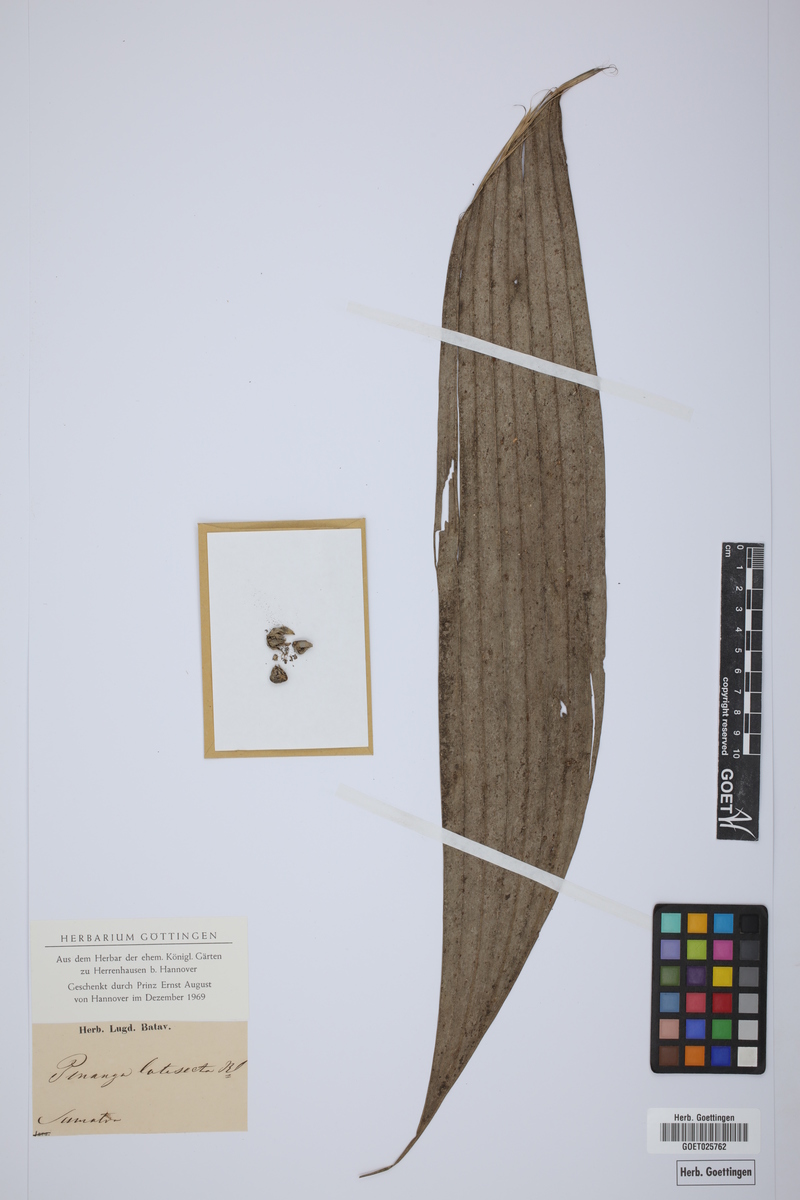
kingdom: Plantae
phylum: Tracheophyta
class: Liliopsida
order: Arecales
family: Arecaceae
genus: Pinanga
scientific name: Pinanga latisecta
